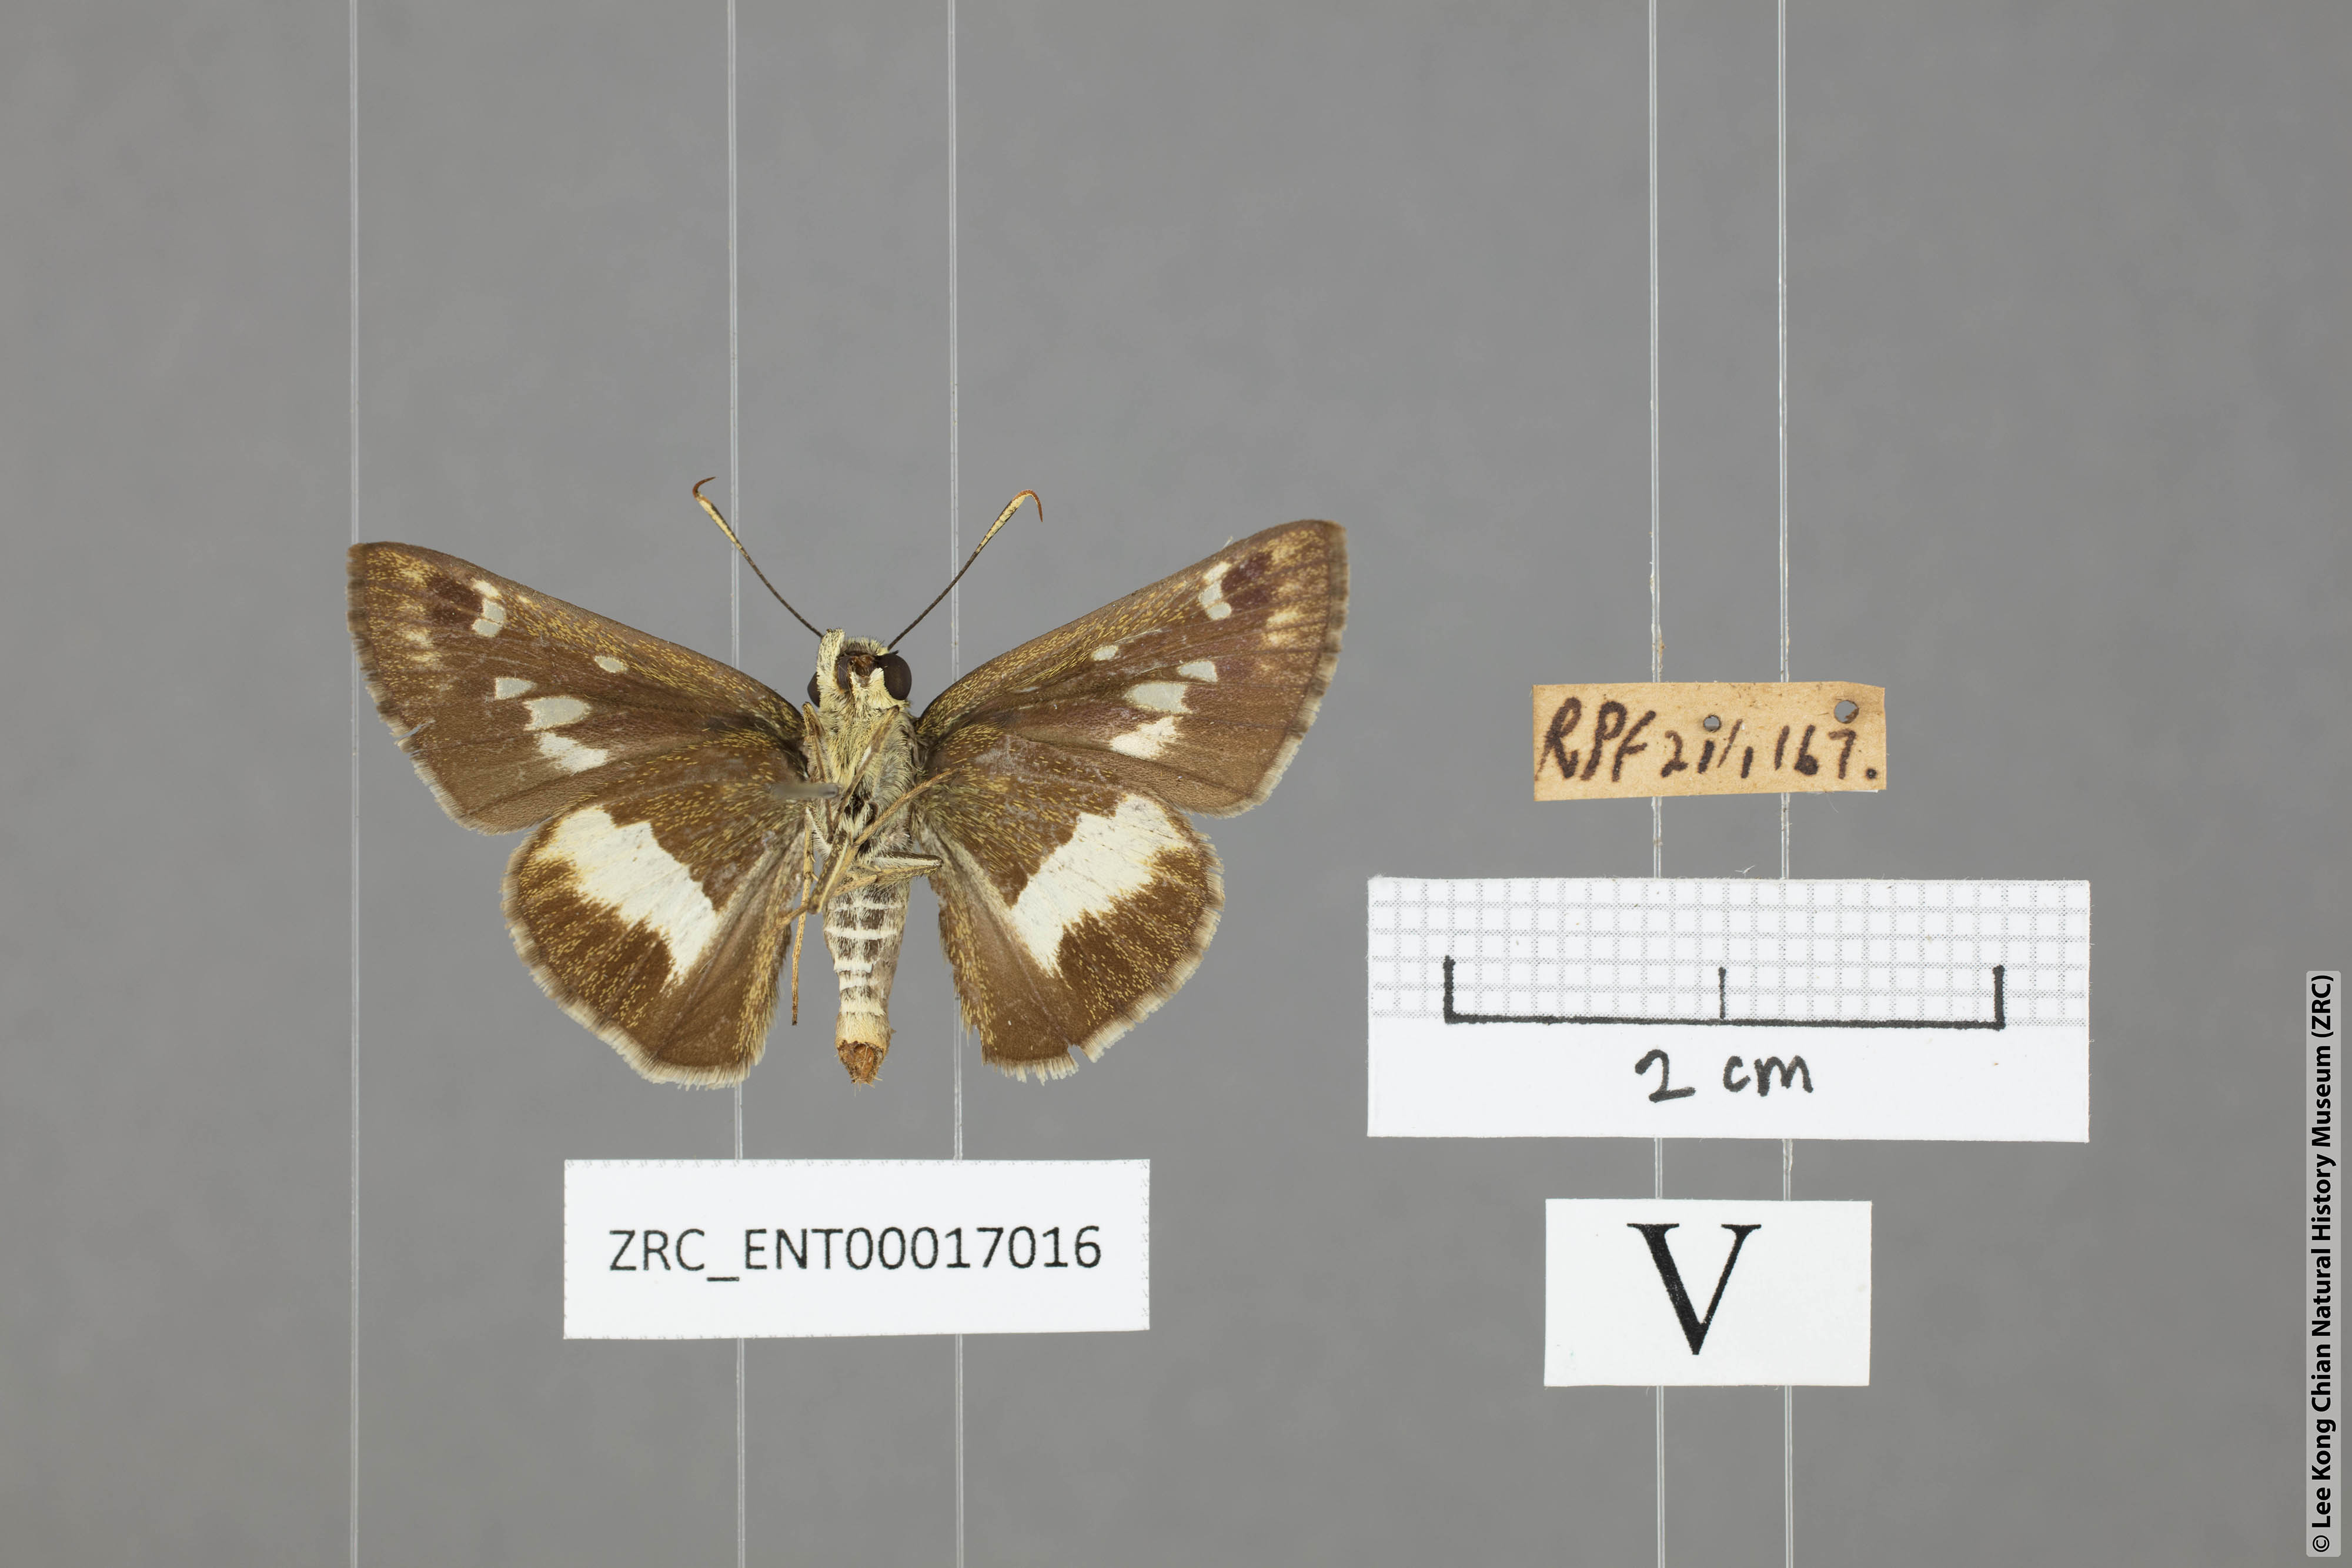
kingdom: Animalia
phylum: Arthropoda
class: Insecta
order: Lepidoptera
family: Hesperiidae
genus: Halpe
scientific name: Halpe
